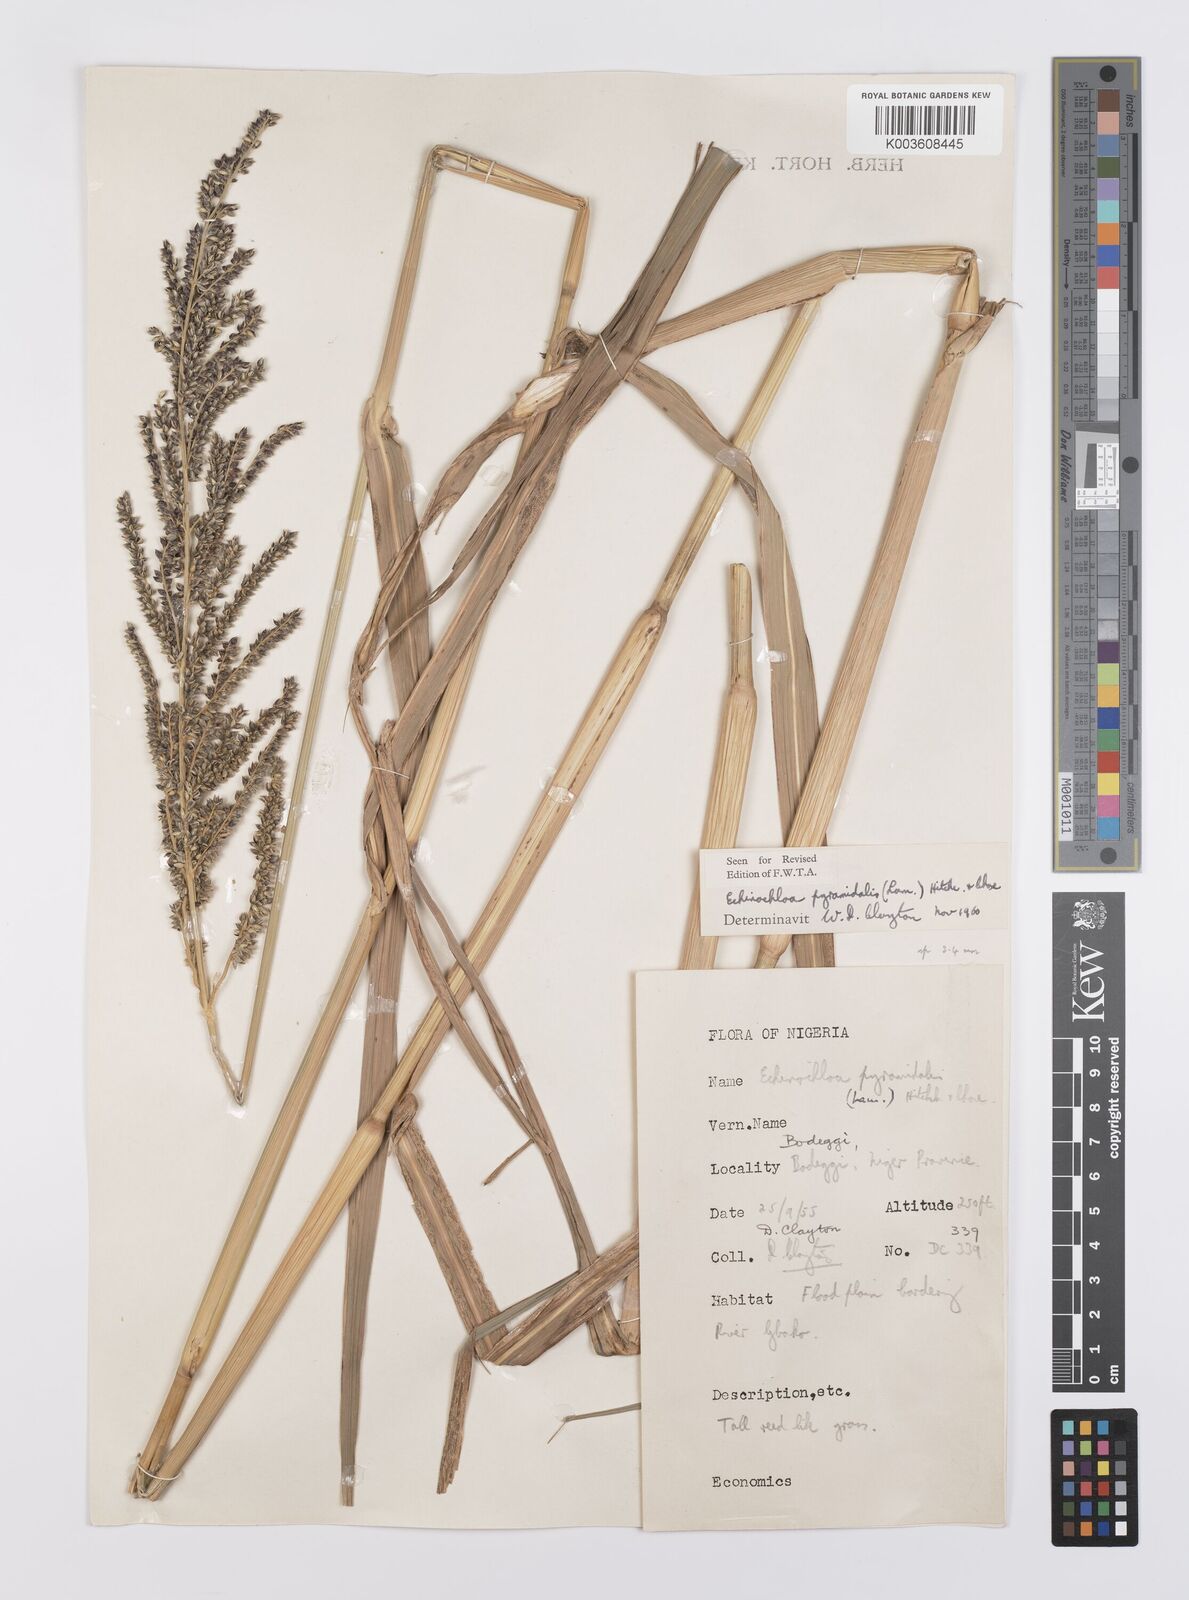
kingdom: Plantae
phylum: Tracheophyta
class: Liliopsida
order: Poales
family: Poaceae
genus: Echinochloa
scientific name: Echinochloa pyramidalis
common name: Antelope grass
